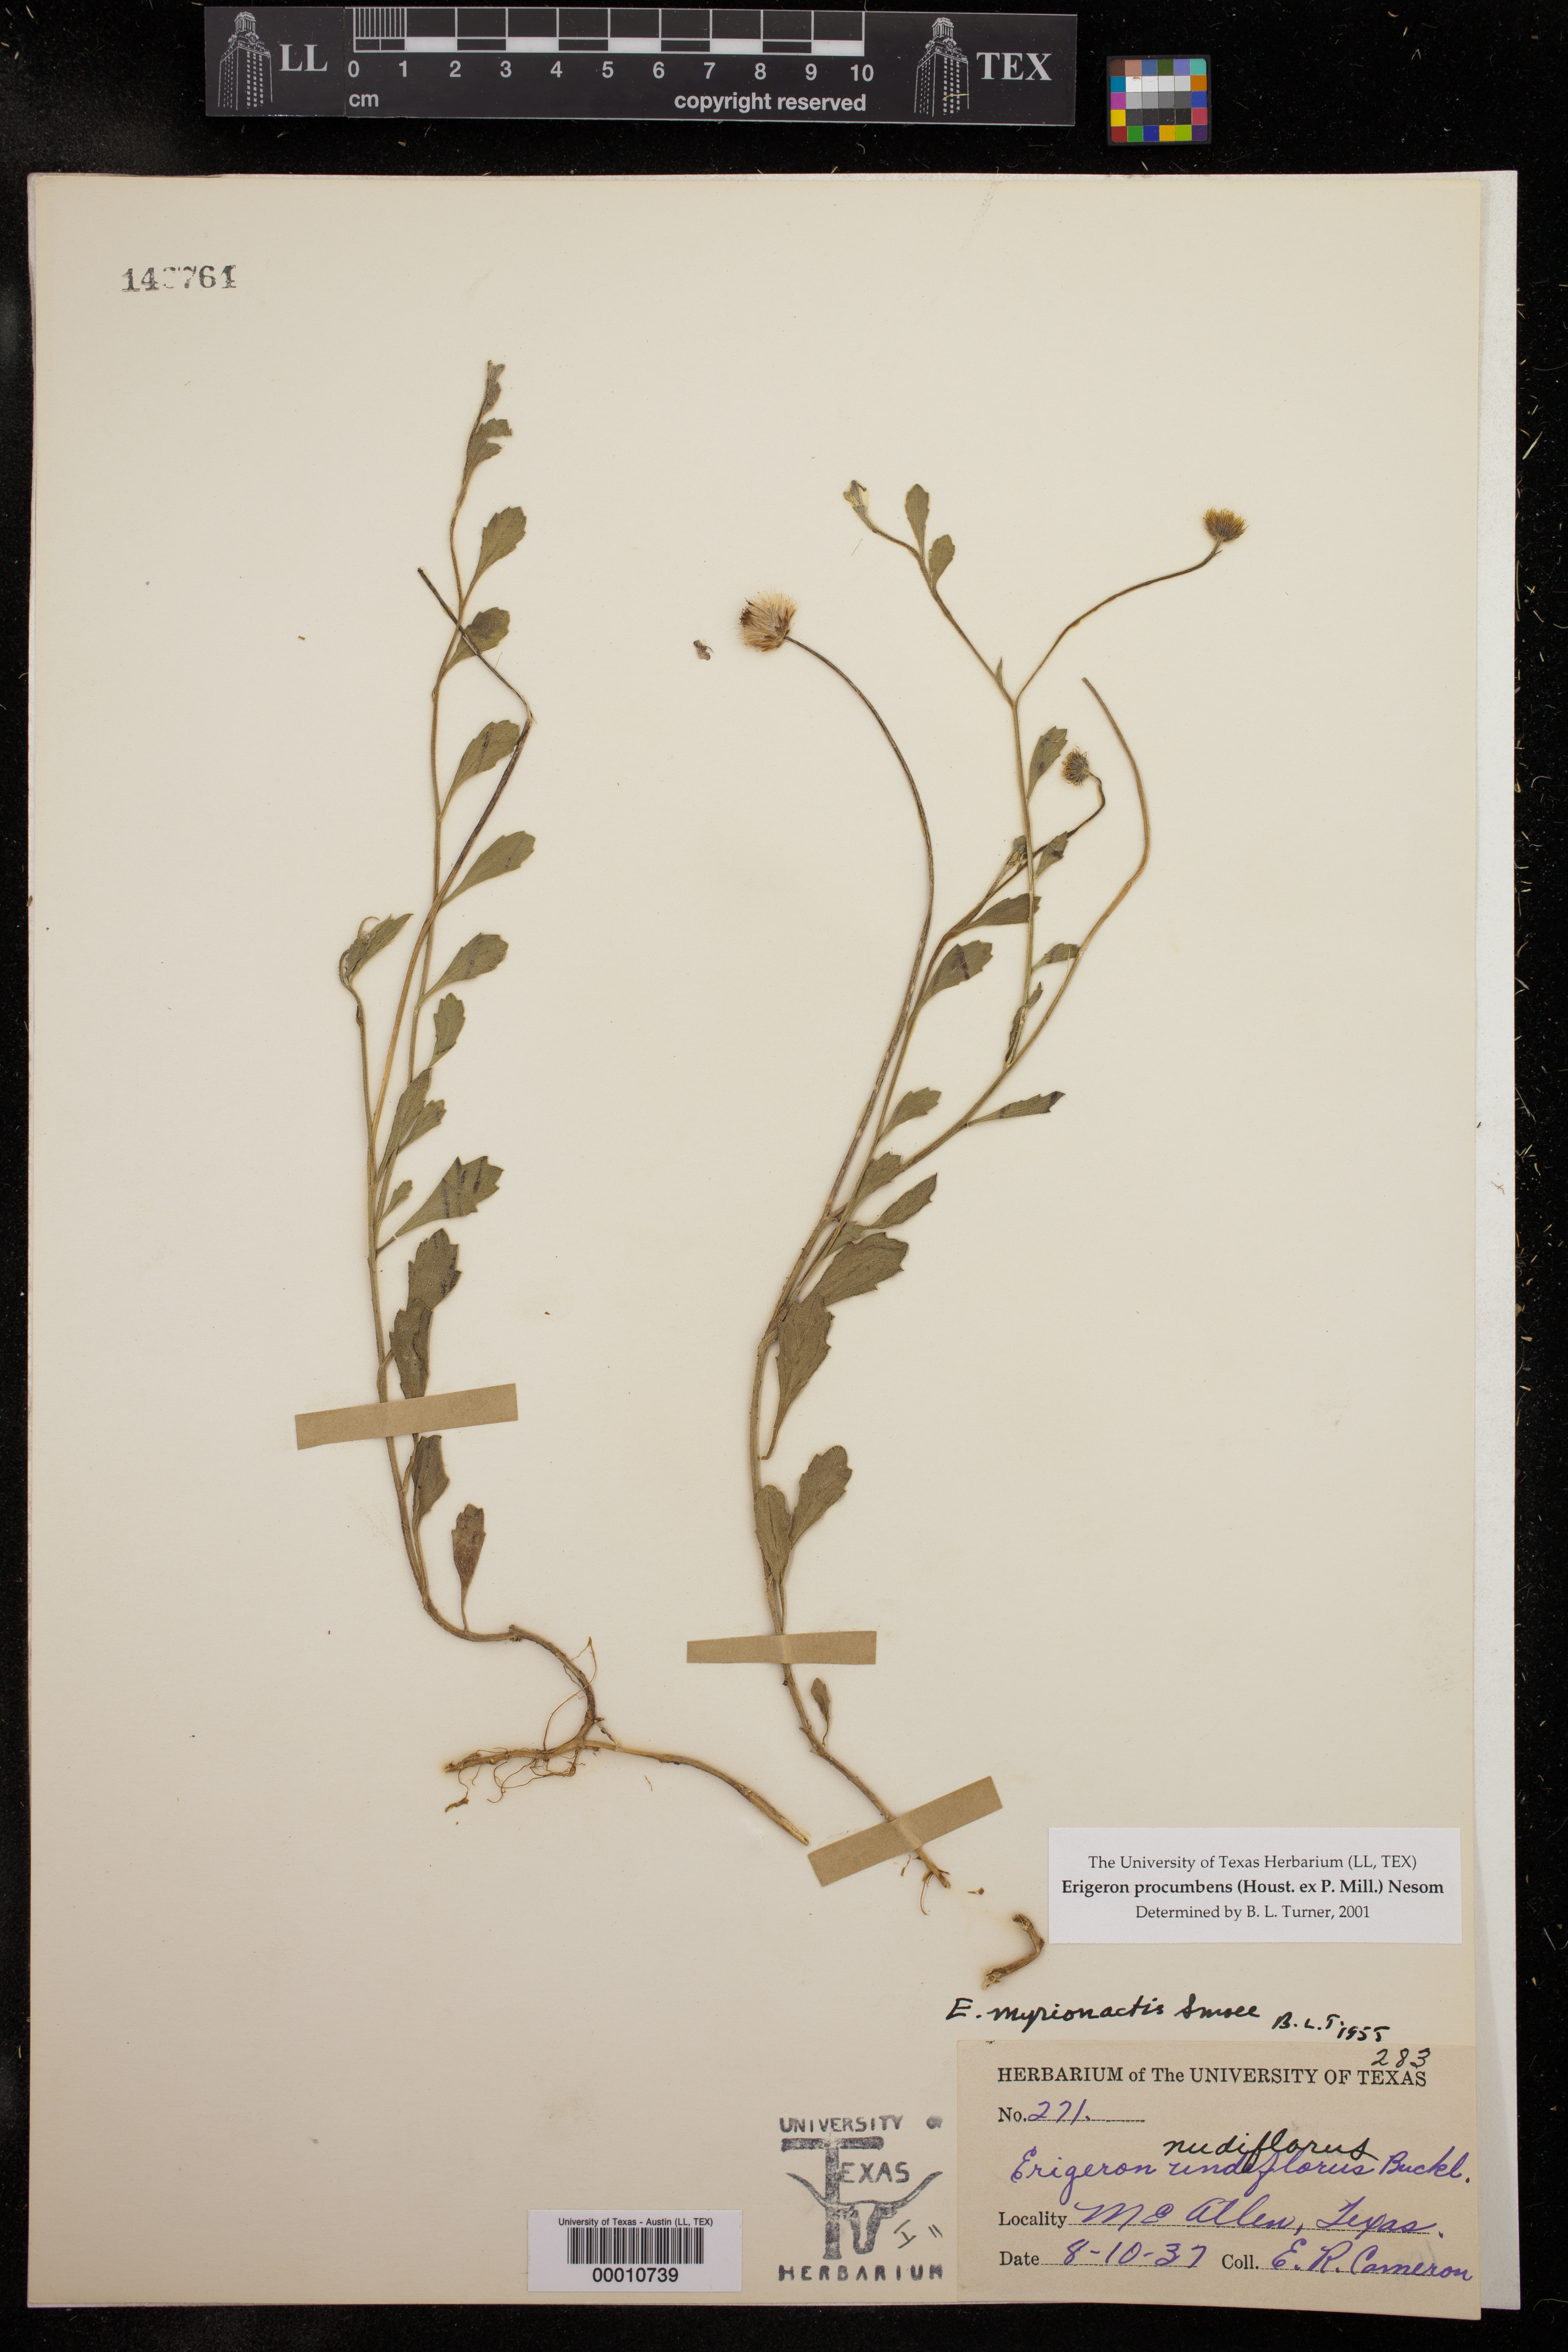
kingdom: Plantae
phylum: Tracheophyta
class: Magnoliopsida
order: Asterales
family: Asteraceae
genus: Erigeron
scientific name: Erigeron procumbens
